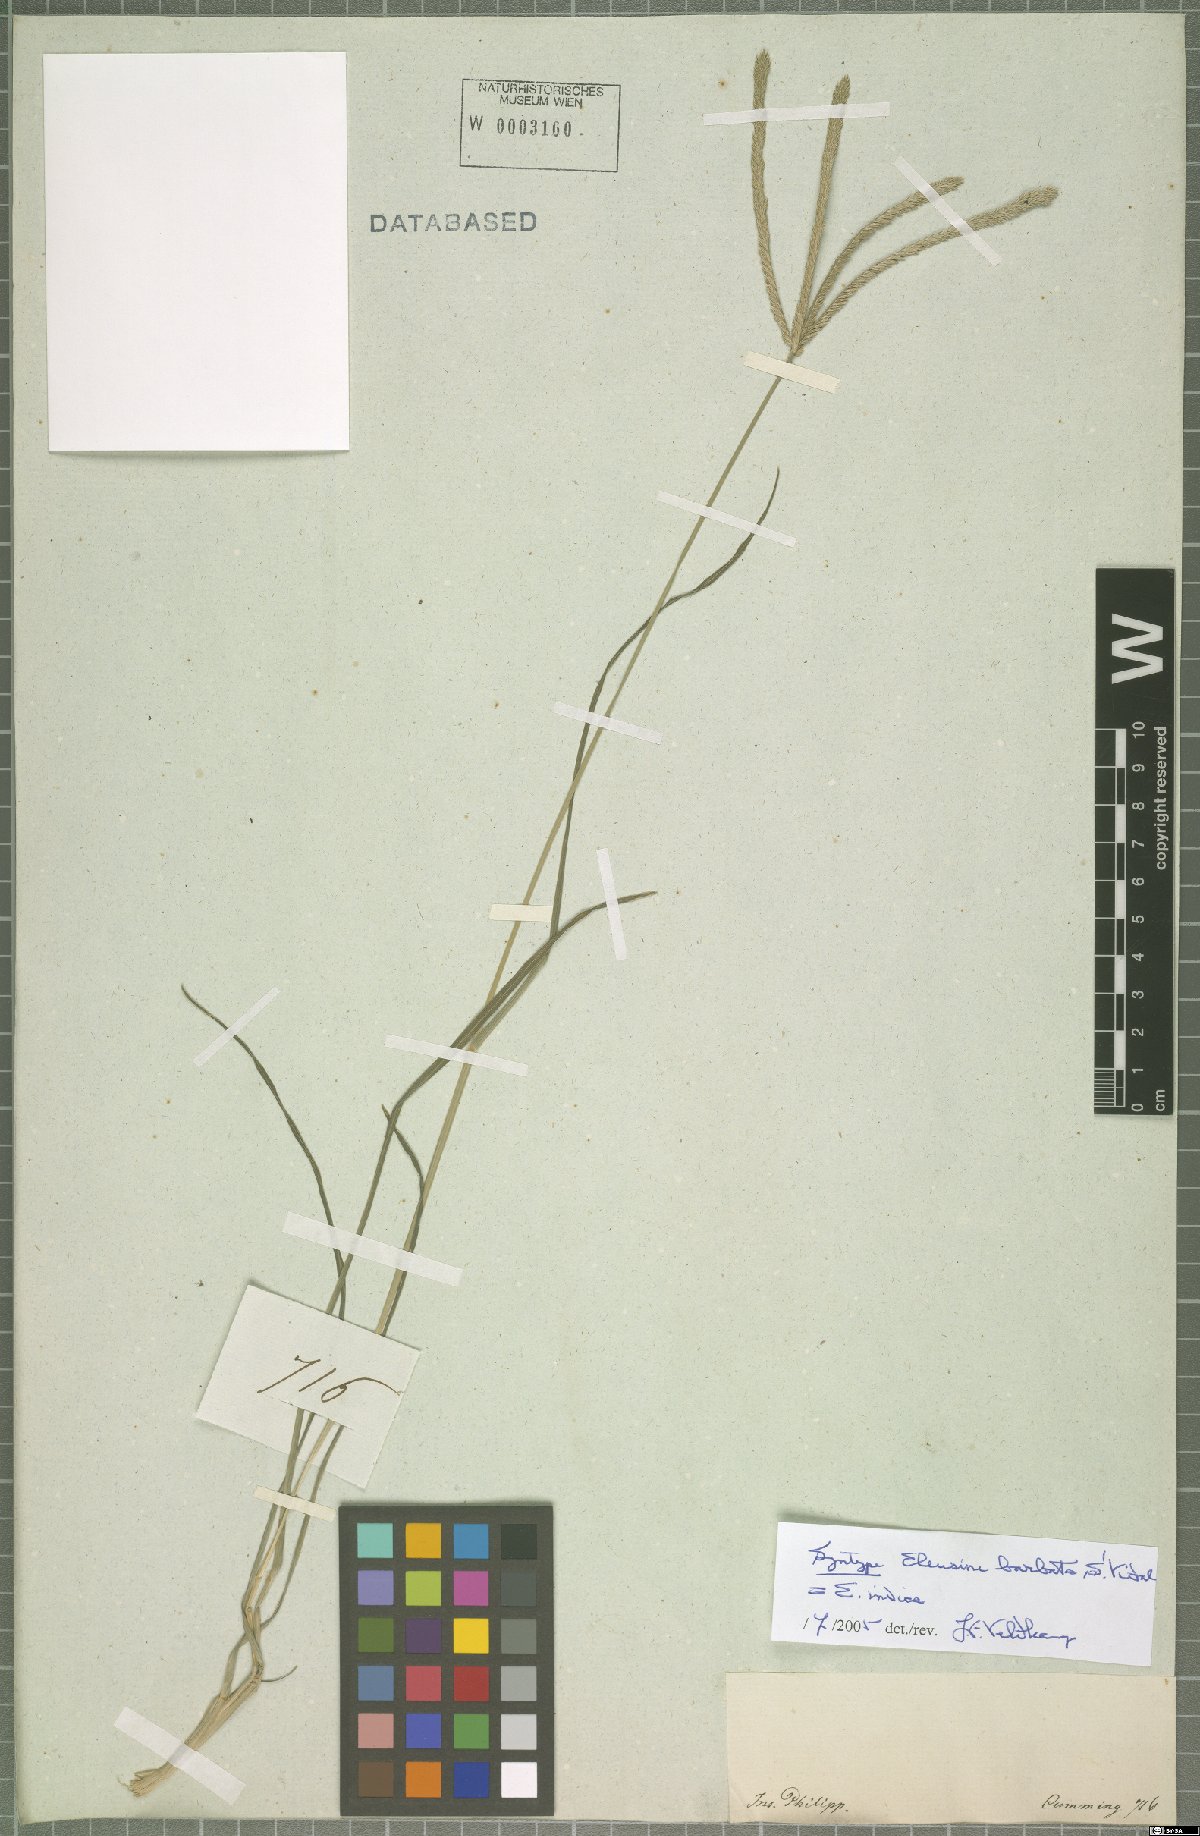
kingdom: Plantae
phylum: Tracheophyta
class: Liliopsida
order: Poales
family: Poaceae
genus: Eleusine
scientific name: Eleusine indica
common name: Yard-grass
